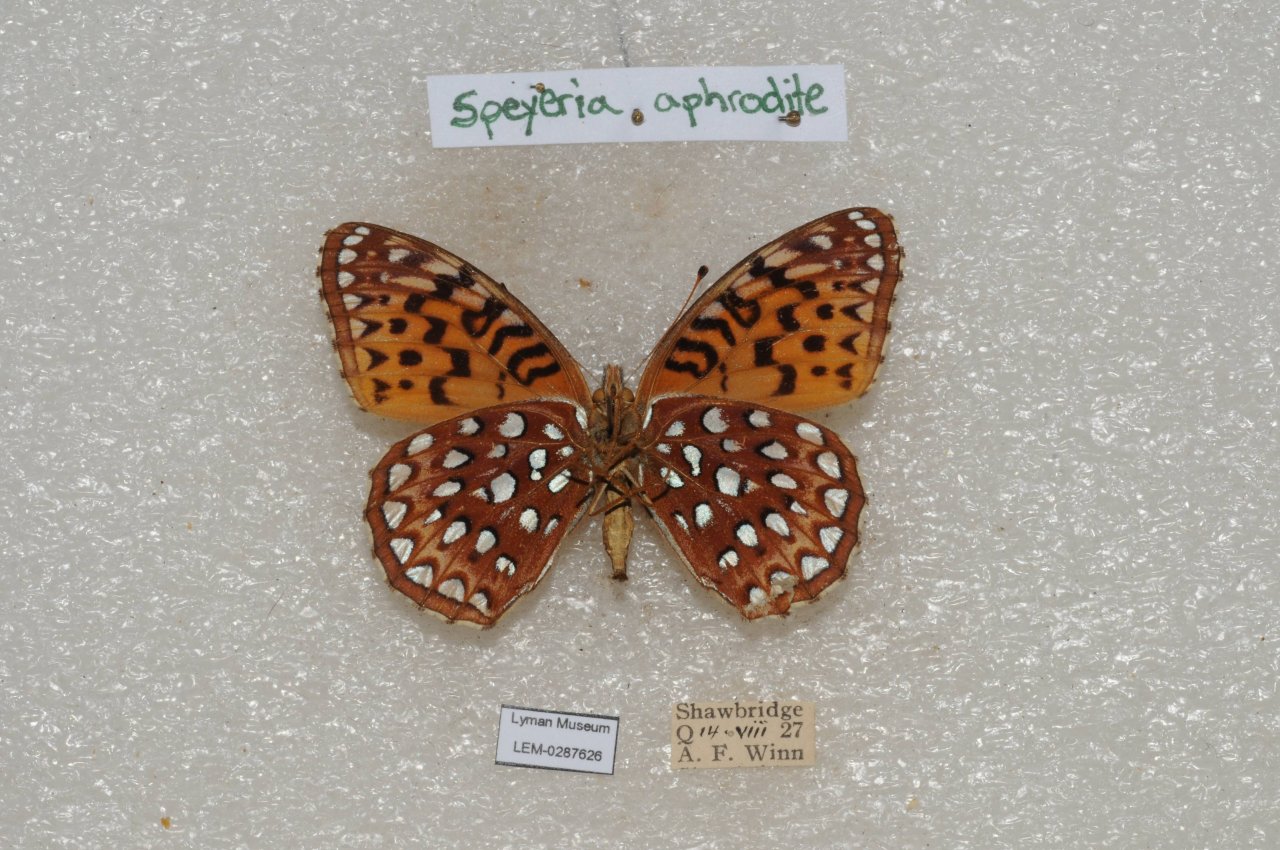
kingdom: Animalia
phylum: Arthropoda
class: Insecta
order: Lepidoptera
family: Nymphalidae
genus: Speyeria
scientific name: Speyeria aphrodite
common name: Aphrodite Fritillary
